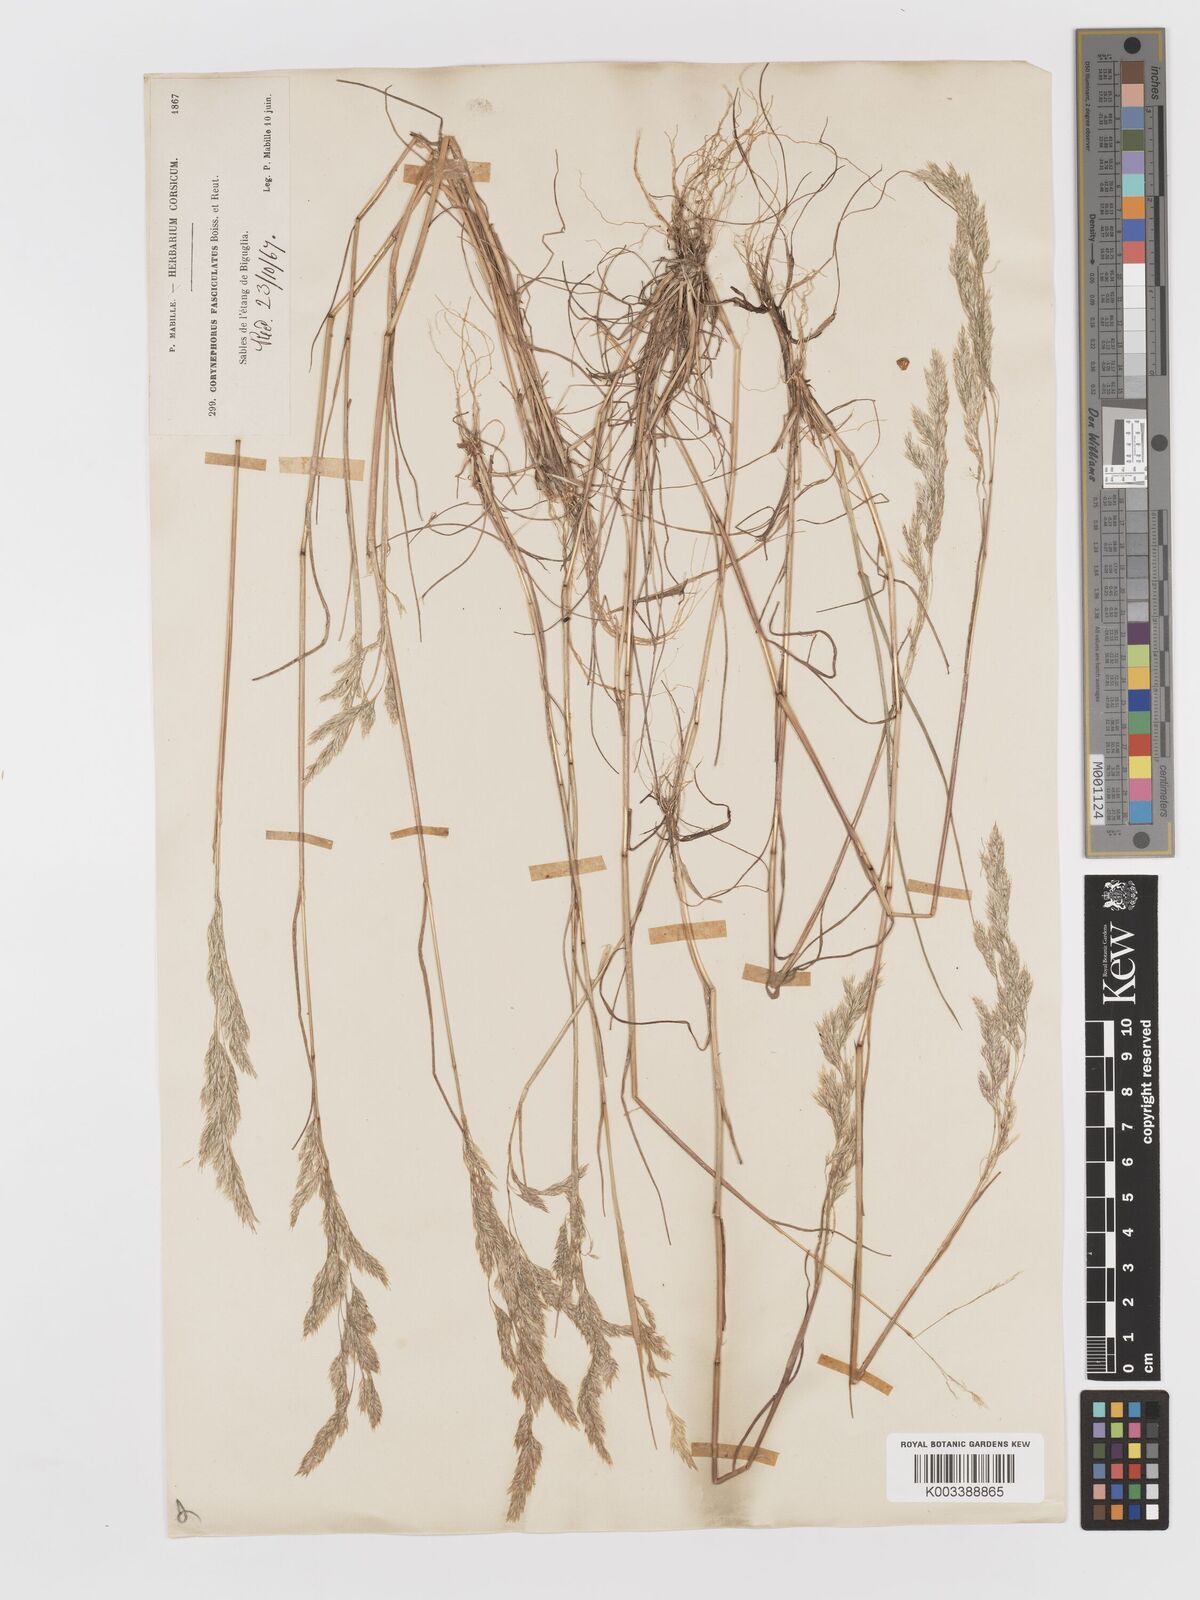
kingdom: Plantae
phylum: Tracheophyta
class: Liliopsida
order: Poales
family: Poaceae
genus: Corynephorus
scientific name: Corynephorus fasciculatus
